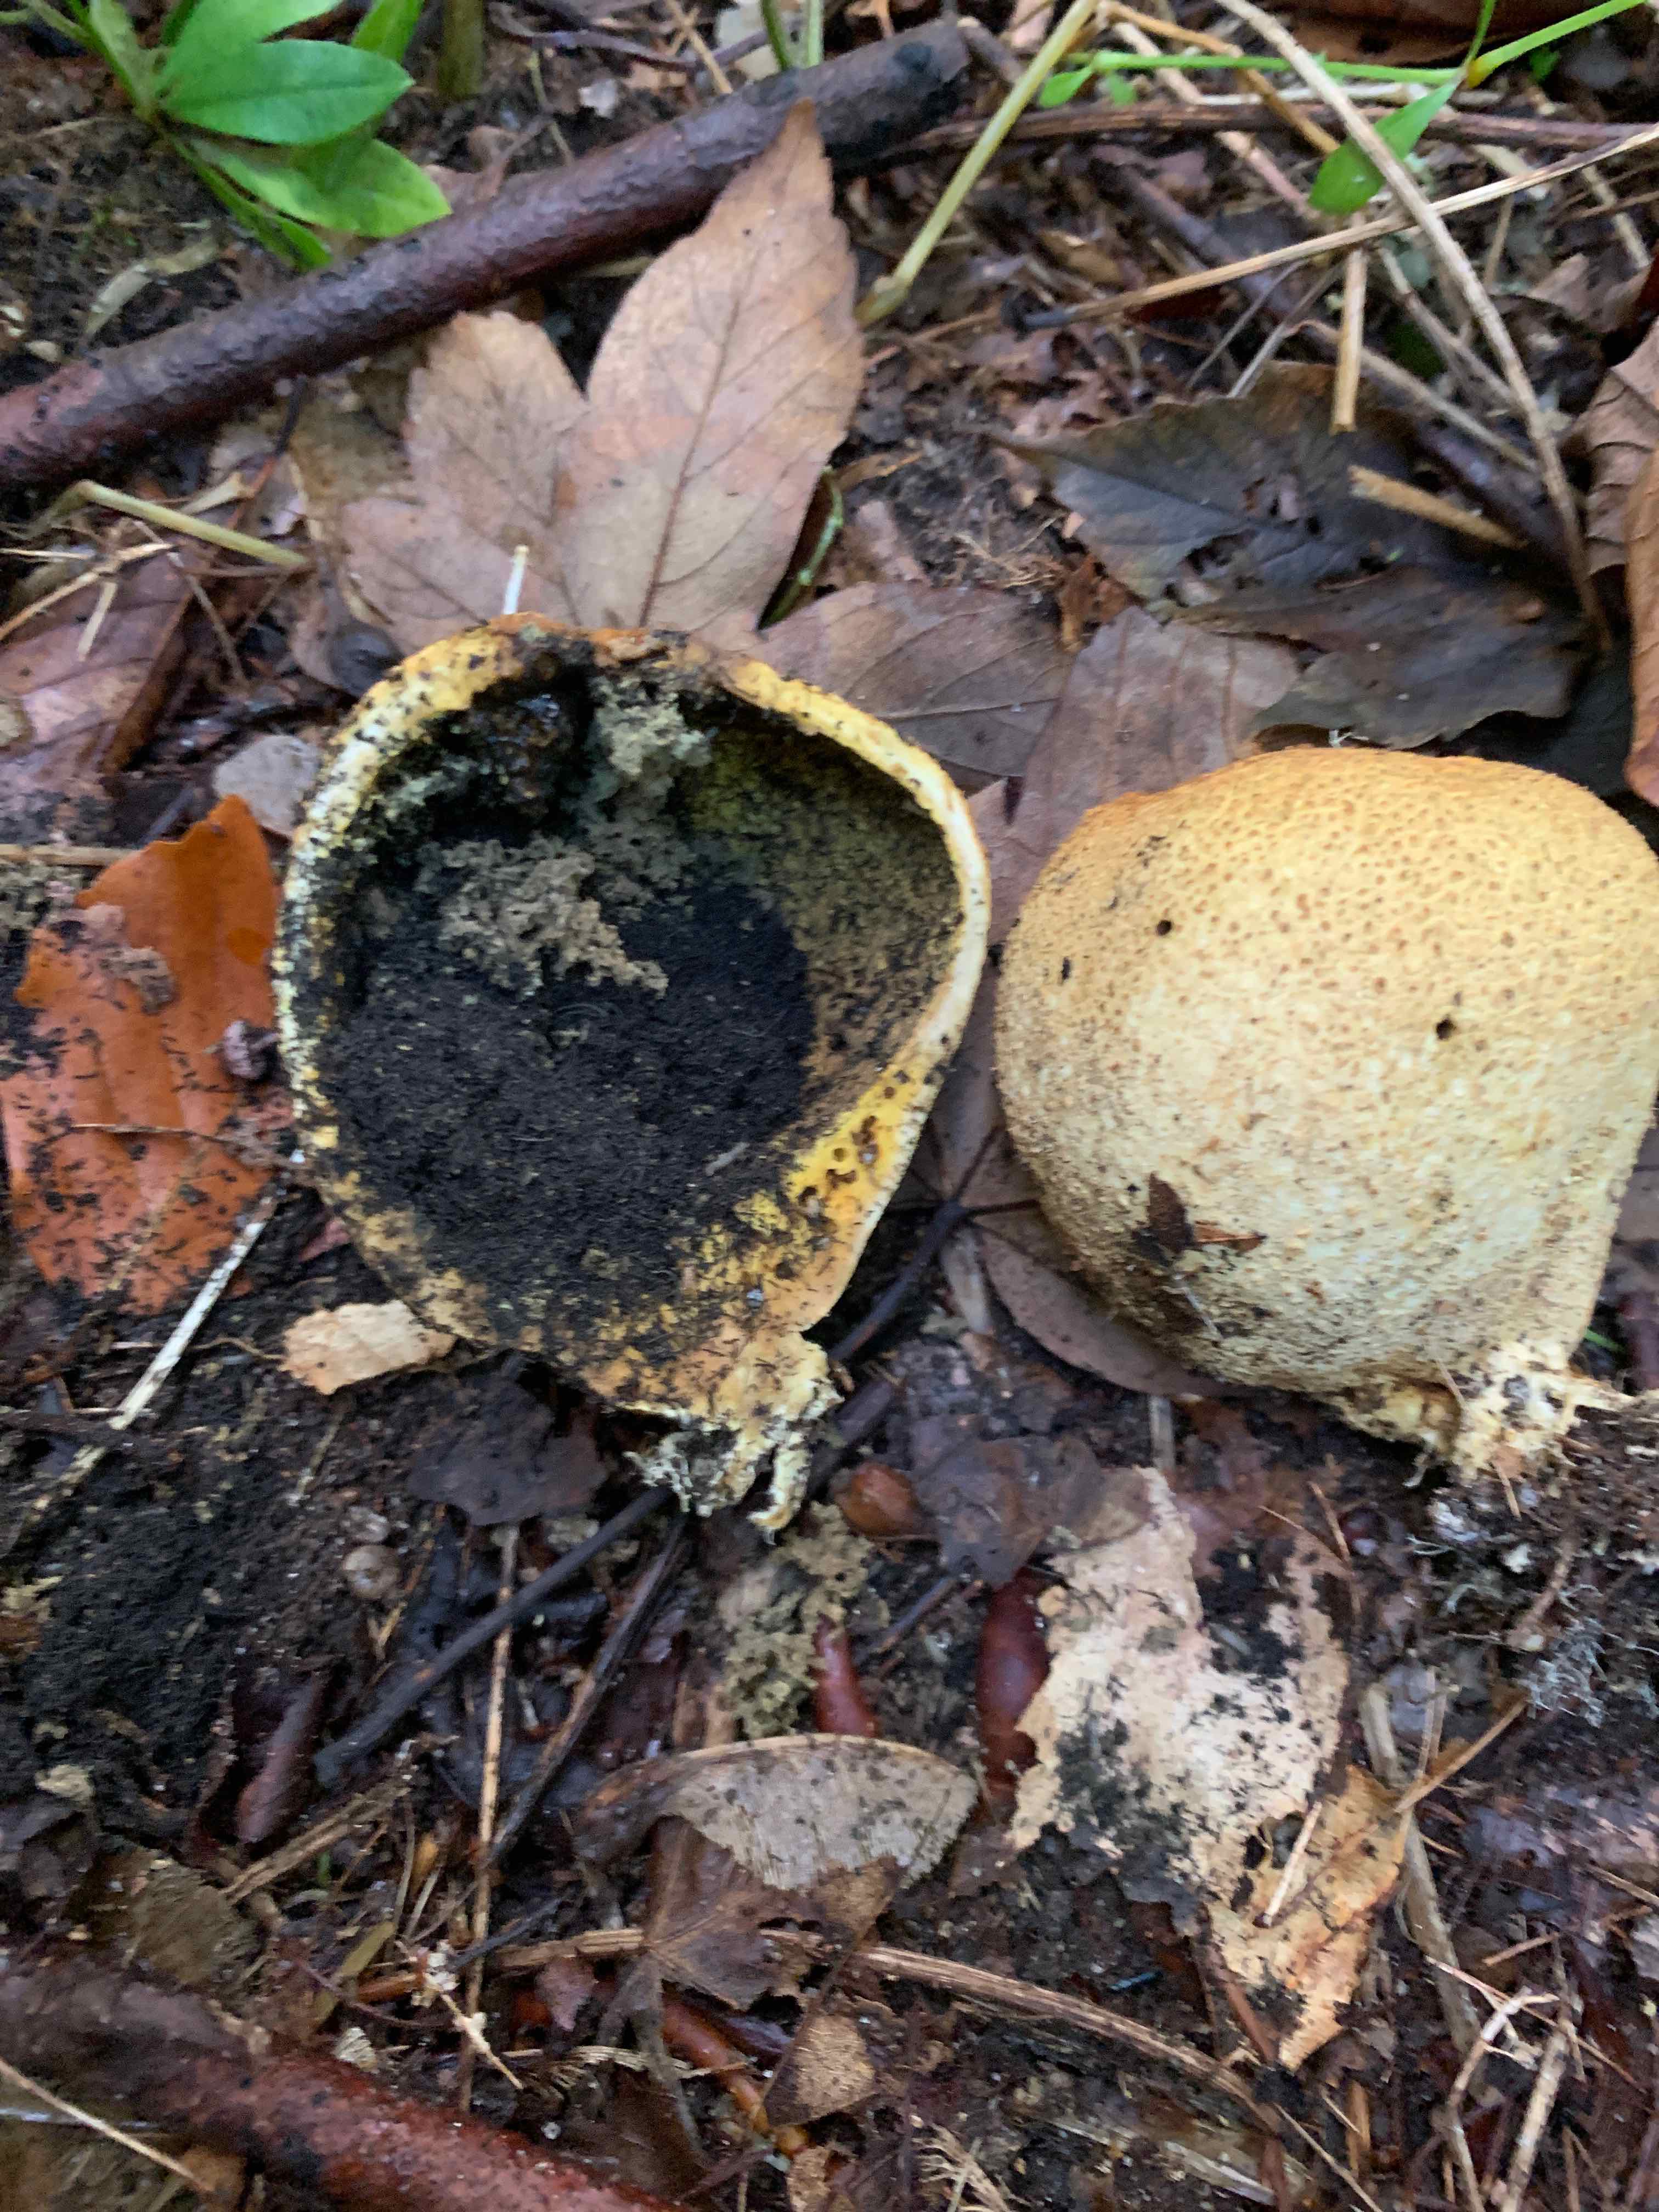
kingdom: Fungi
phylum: Basidiomycota
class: Agaricomycetes
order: Boletales
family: Sclerodermataceae
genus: Scleroderma
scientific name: Scleroderma citrinum
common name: almindelig bruskbold
